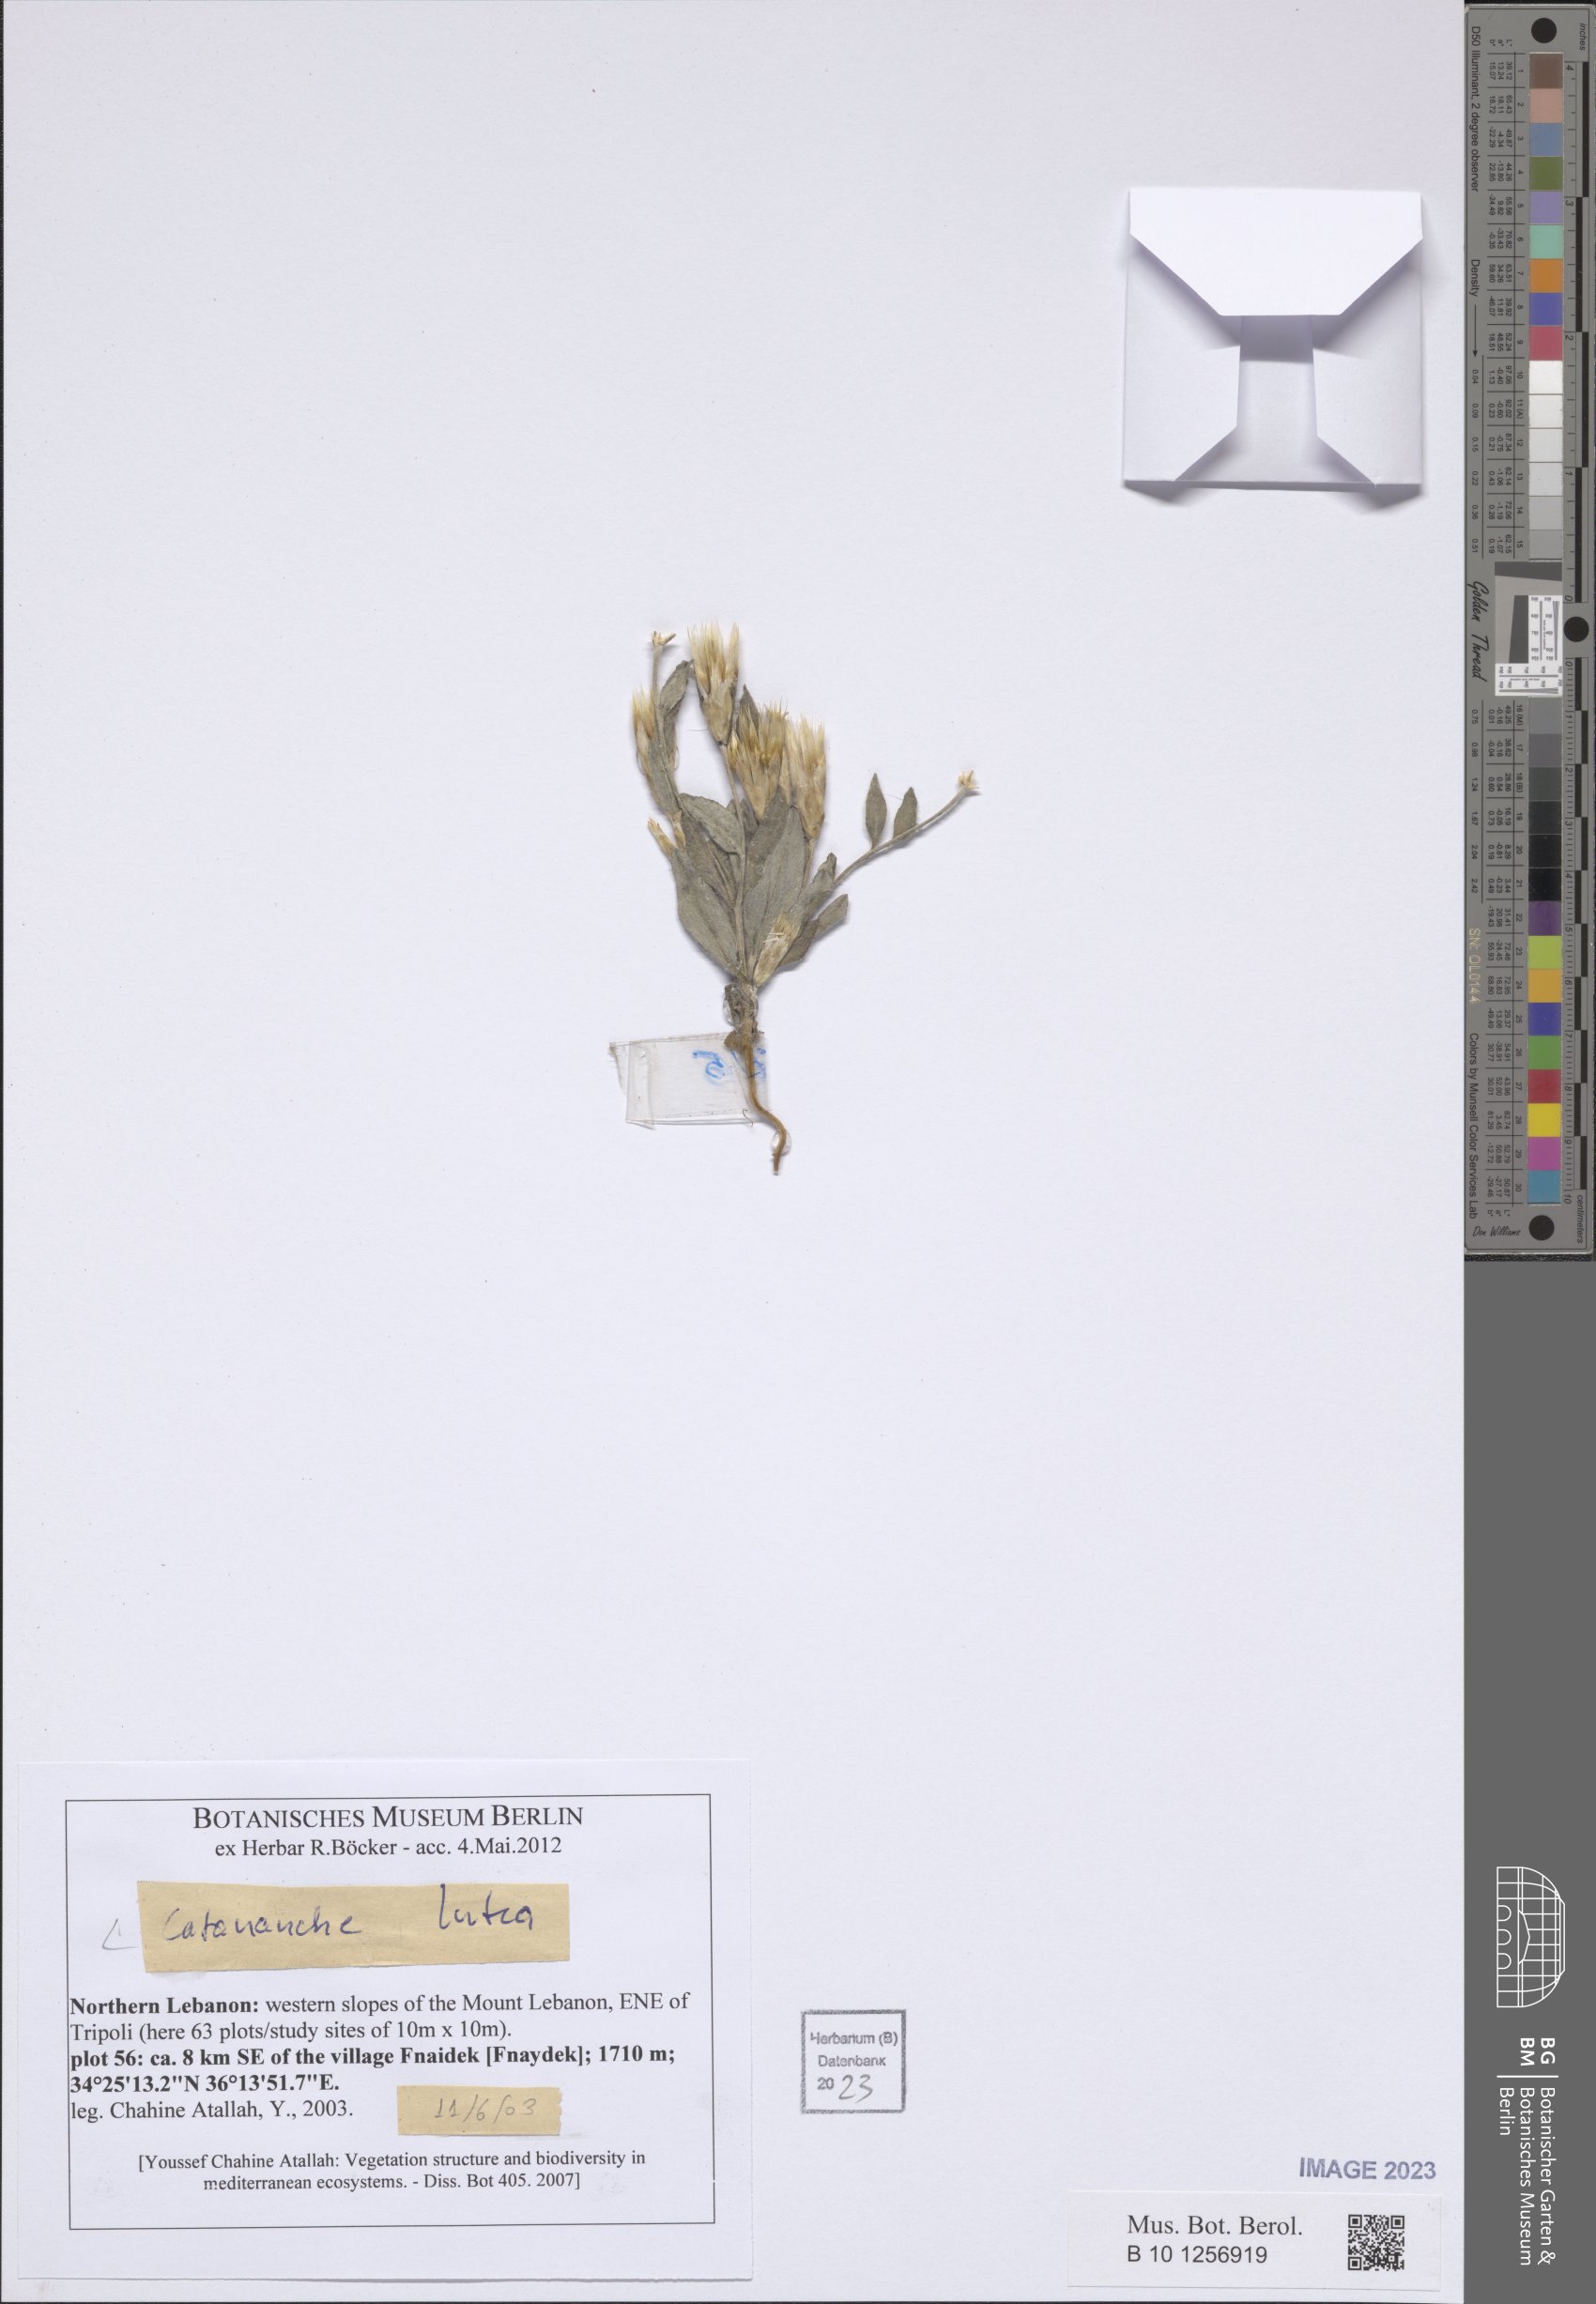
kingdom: Plantae
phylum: Tracheophyta
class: Magnoliopsida
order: Asterales
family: Asteraceae
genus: Catananche
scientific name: Catananche lutea
